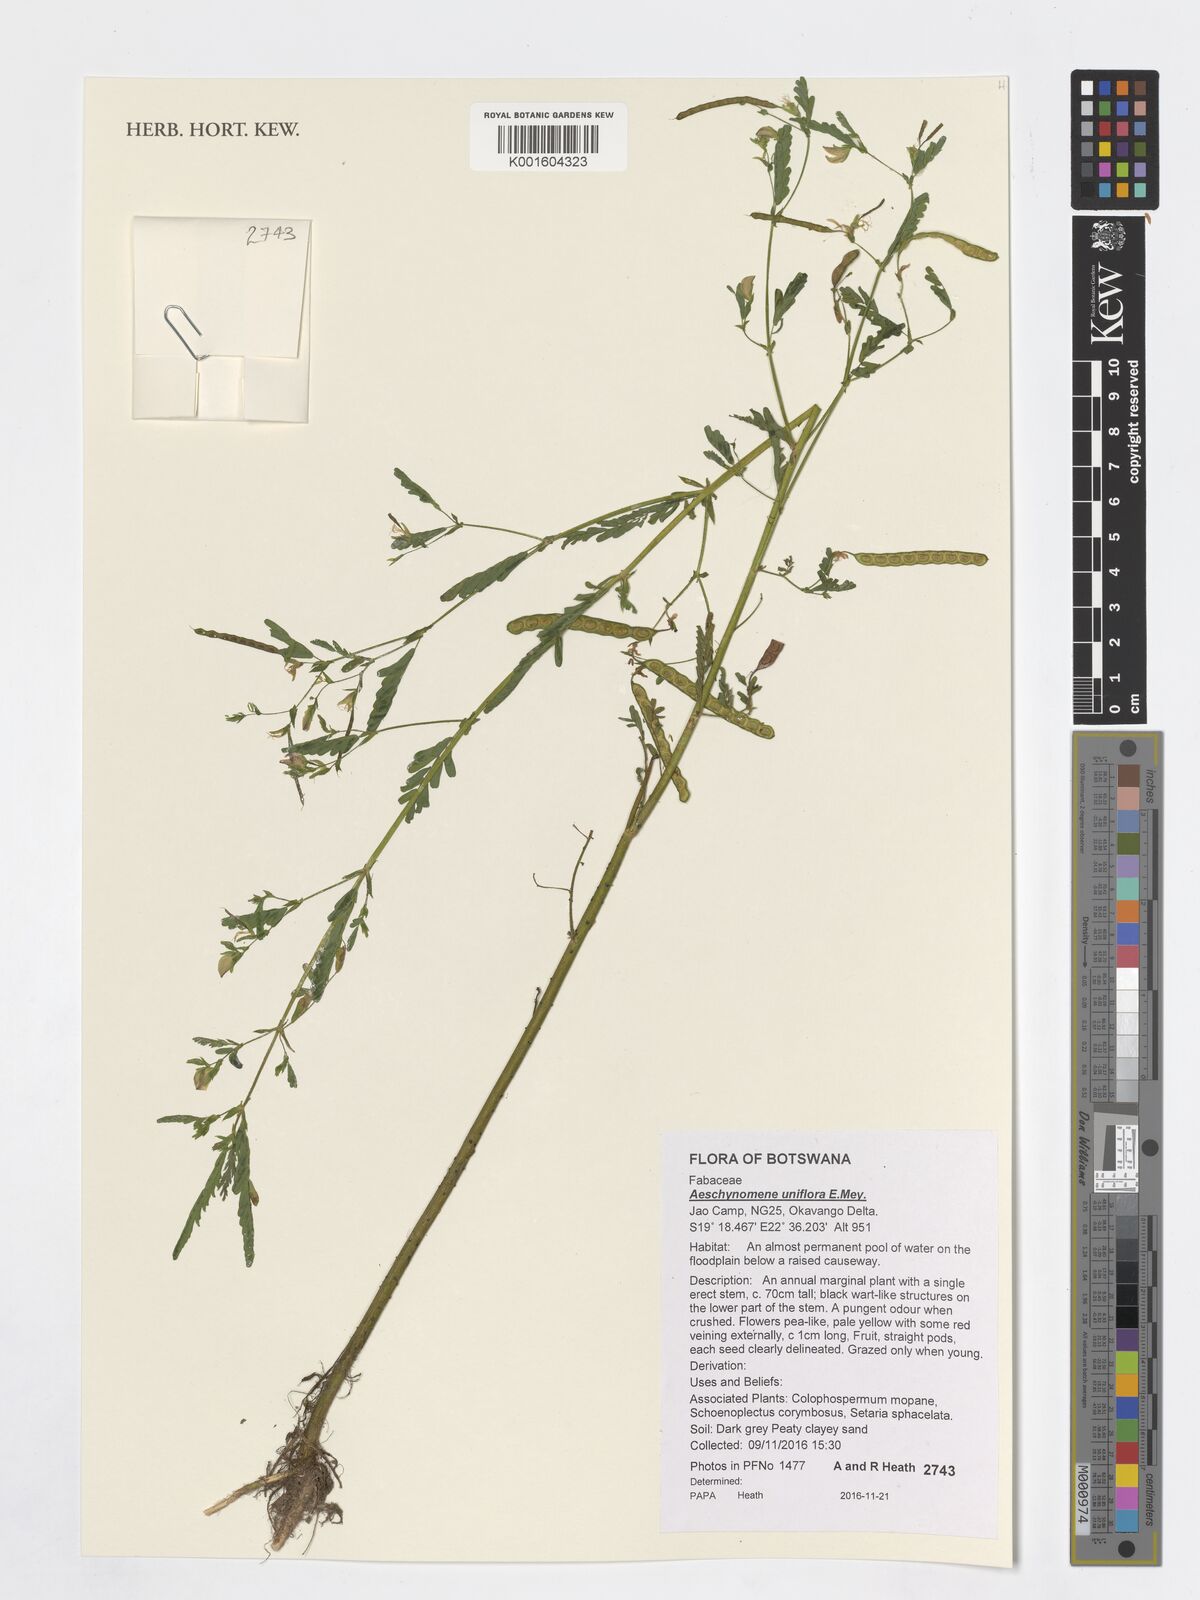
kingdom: Plantae
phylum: Tracheophyta
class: Magnoliopsida
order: Fabales
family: Fabaceae
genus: Aeschynomene
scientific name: Aeschynomene uniflora
